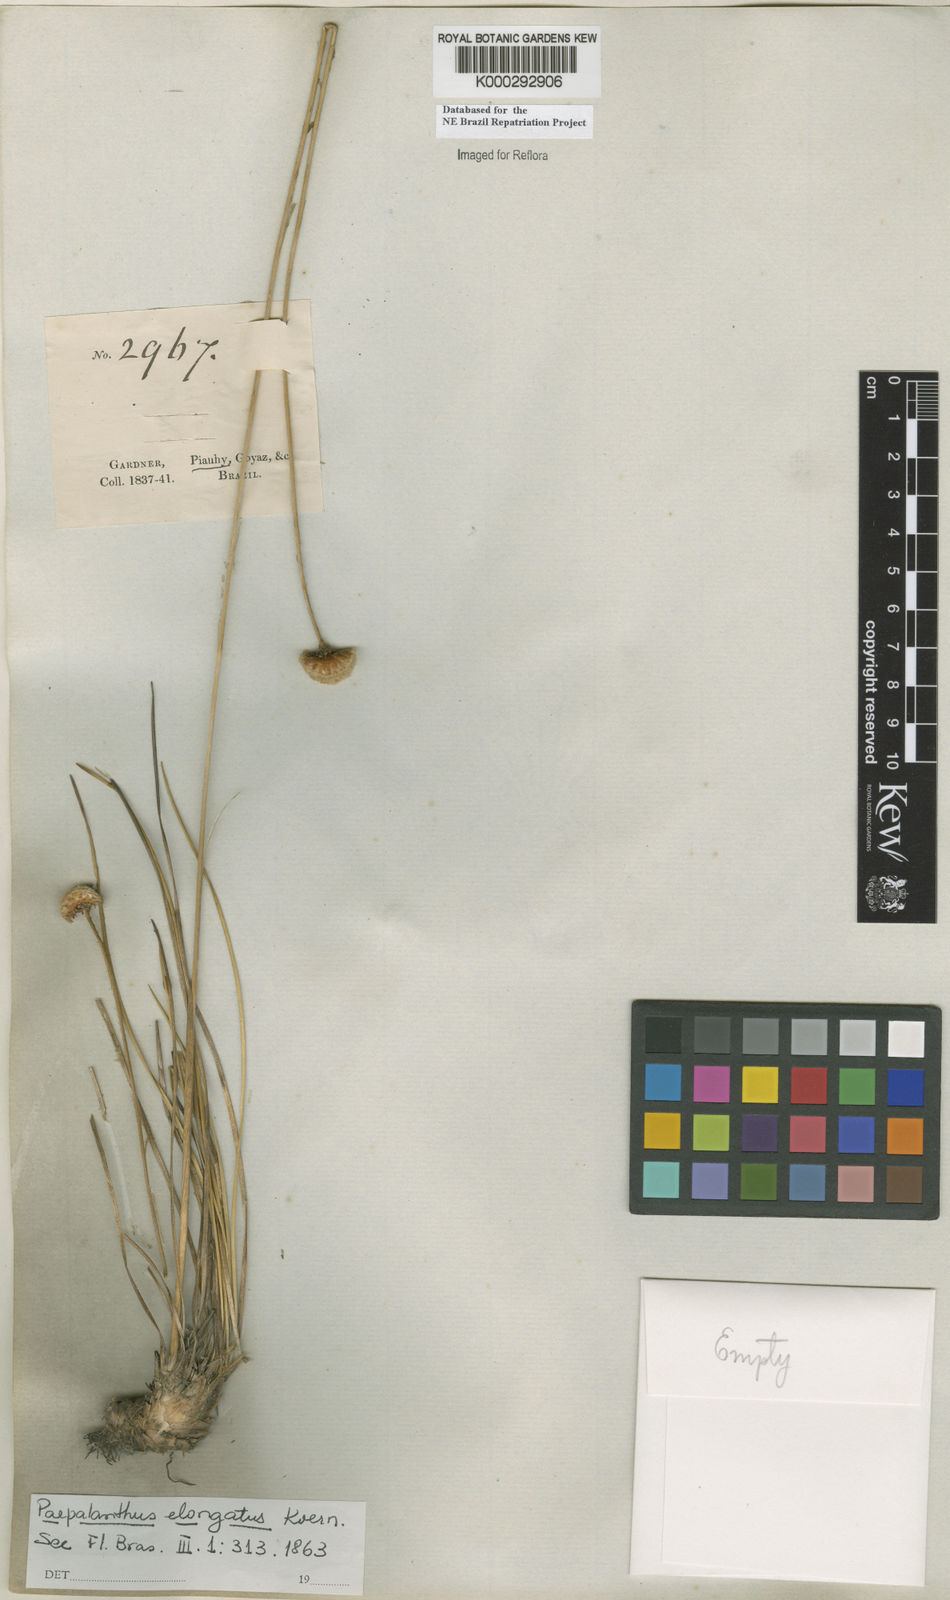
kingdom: Plantae
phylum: Tracheophyta
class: Liliopsida
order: Poales
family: Eriocaulaceae
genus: Paepalanthus
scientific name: Paepalanthus
